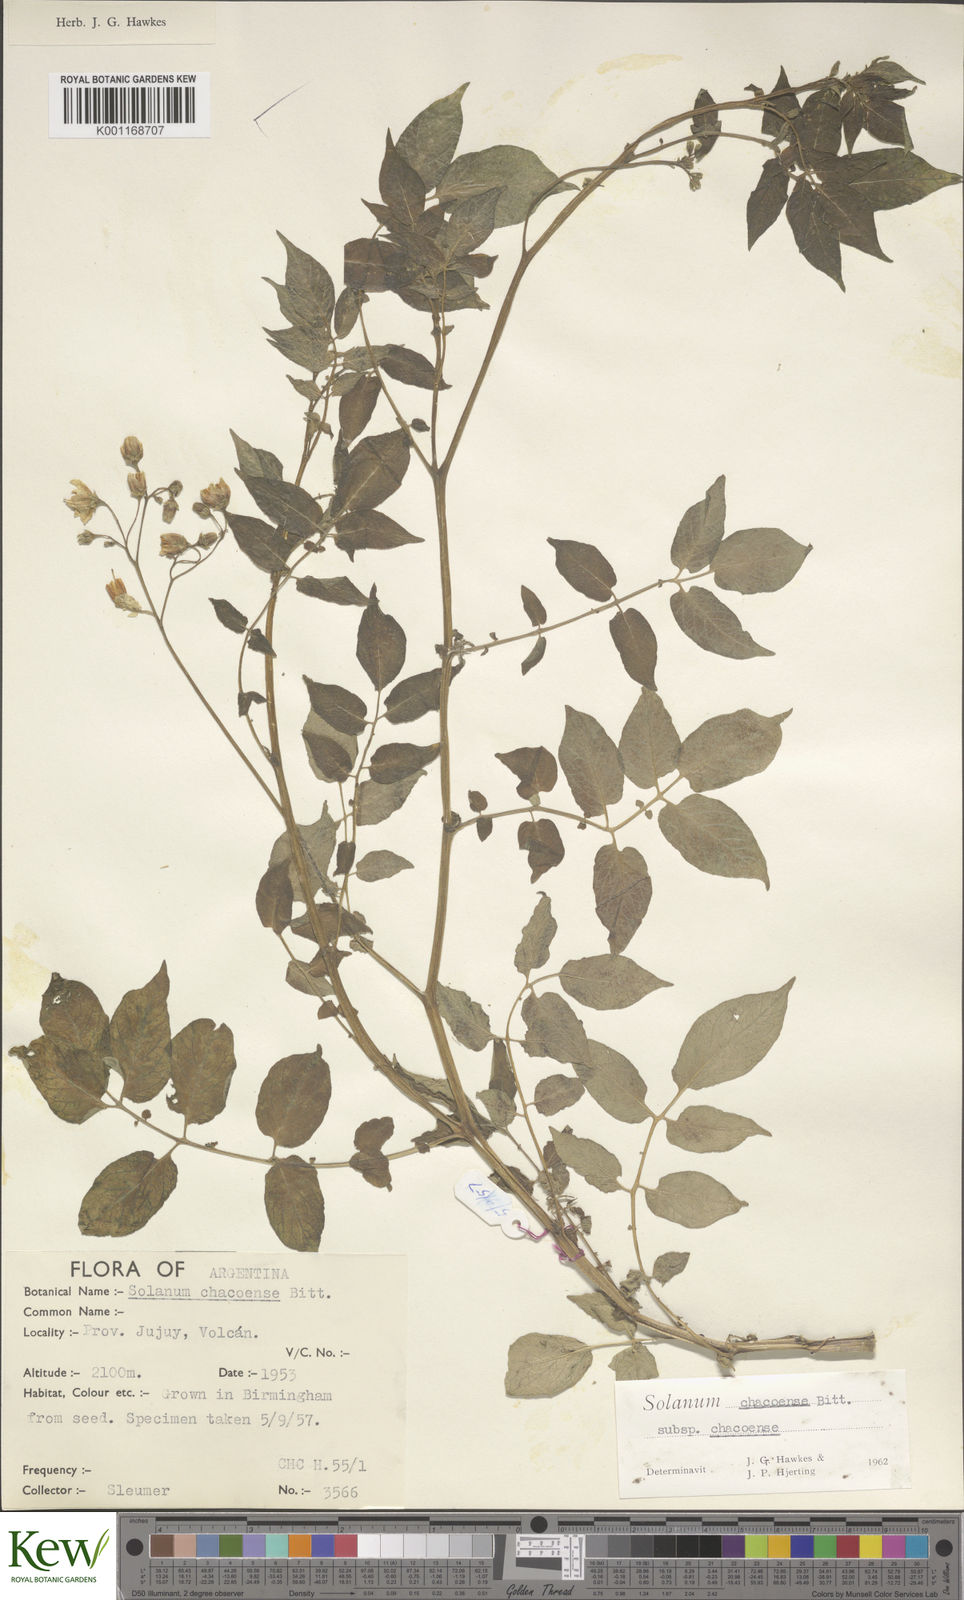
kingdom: Plantae
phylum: Tracheophyta
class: Magnoliopsida
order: Solanales
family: Solanaceae
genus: Solanum
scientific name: Solanum chacoense
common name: Chaco potato
